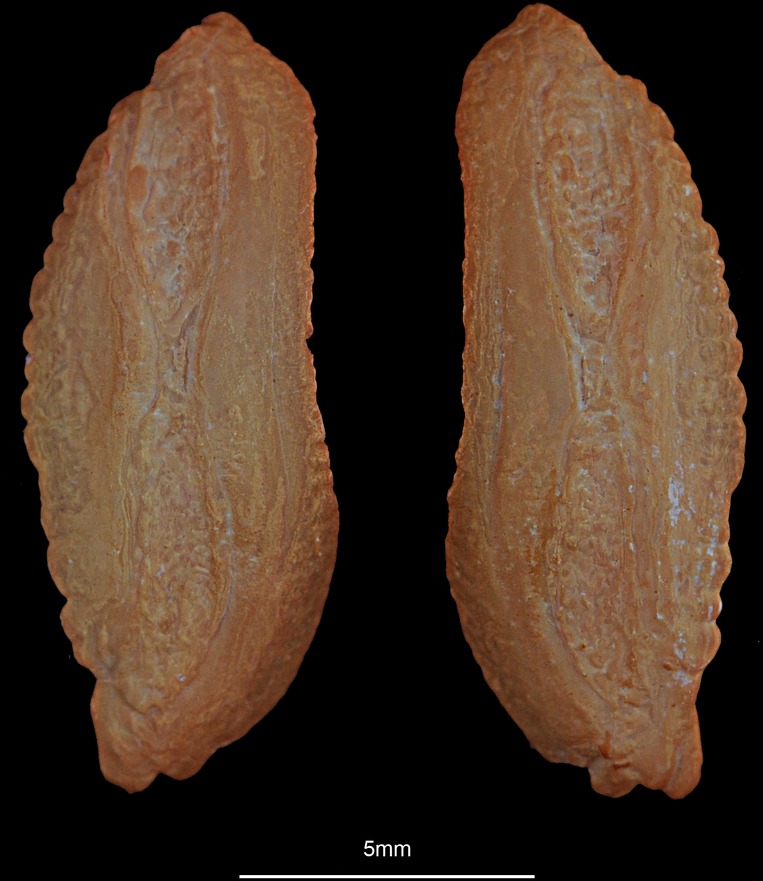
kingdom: Animalia
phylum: Chordata
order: Gadiformes
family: Lotidae
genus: Molva
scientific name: Molva molva
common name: Ling
